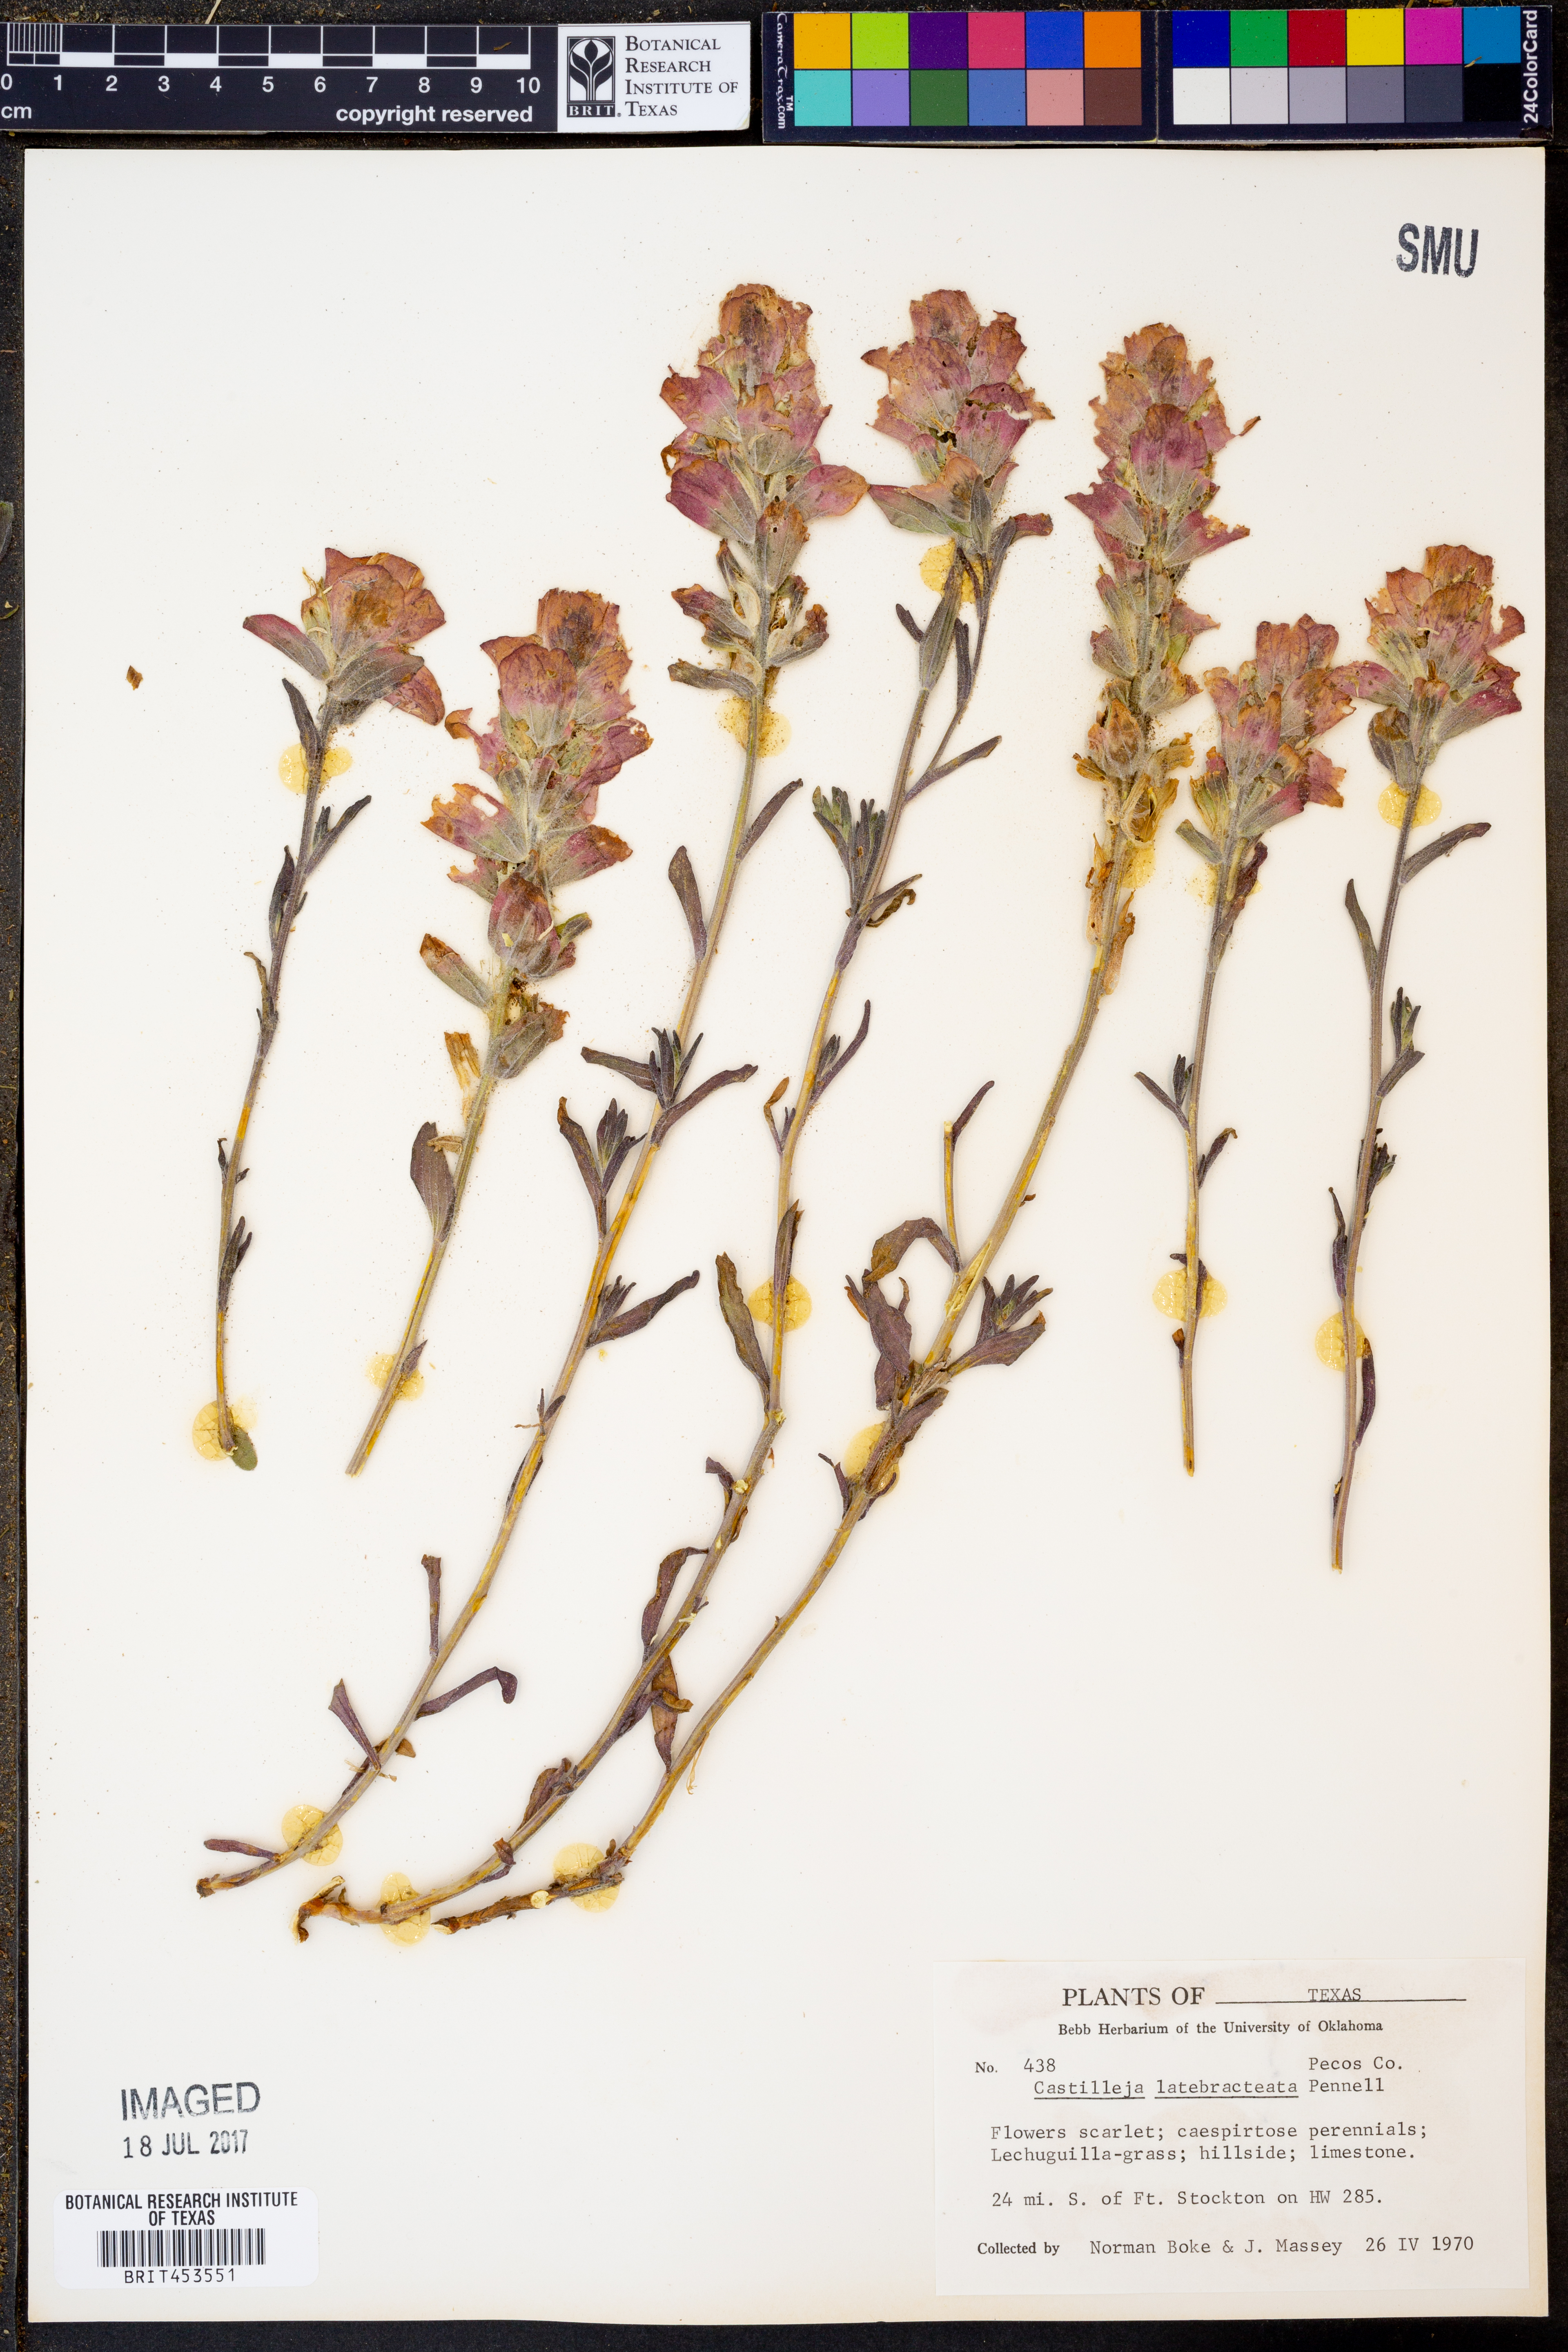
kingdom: Plantae
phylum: Tracheophyta
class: Magnoliopsida
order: Lamiales
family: Orobanchaceae
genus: Castilleja
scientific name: Castilleja rigida
